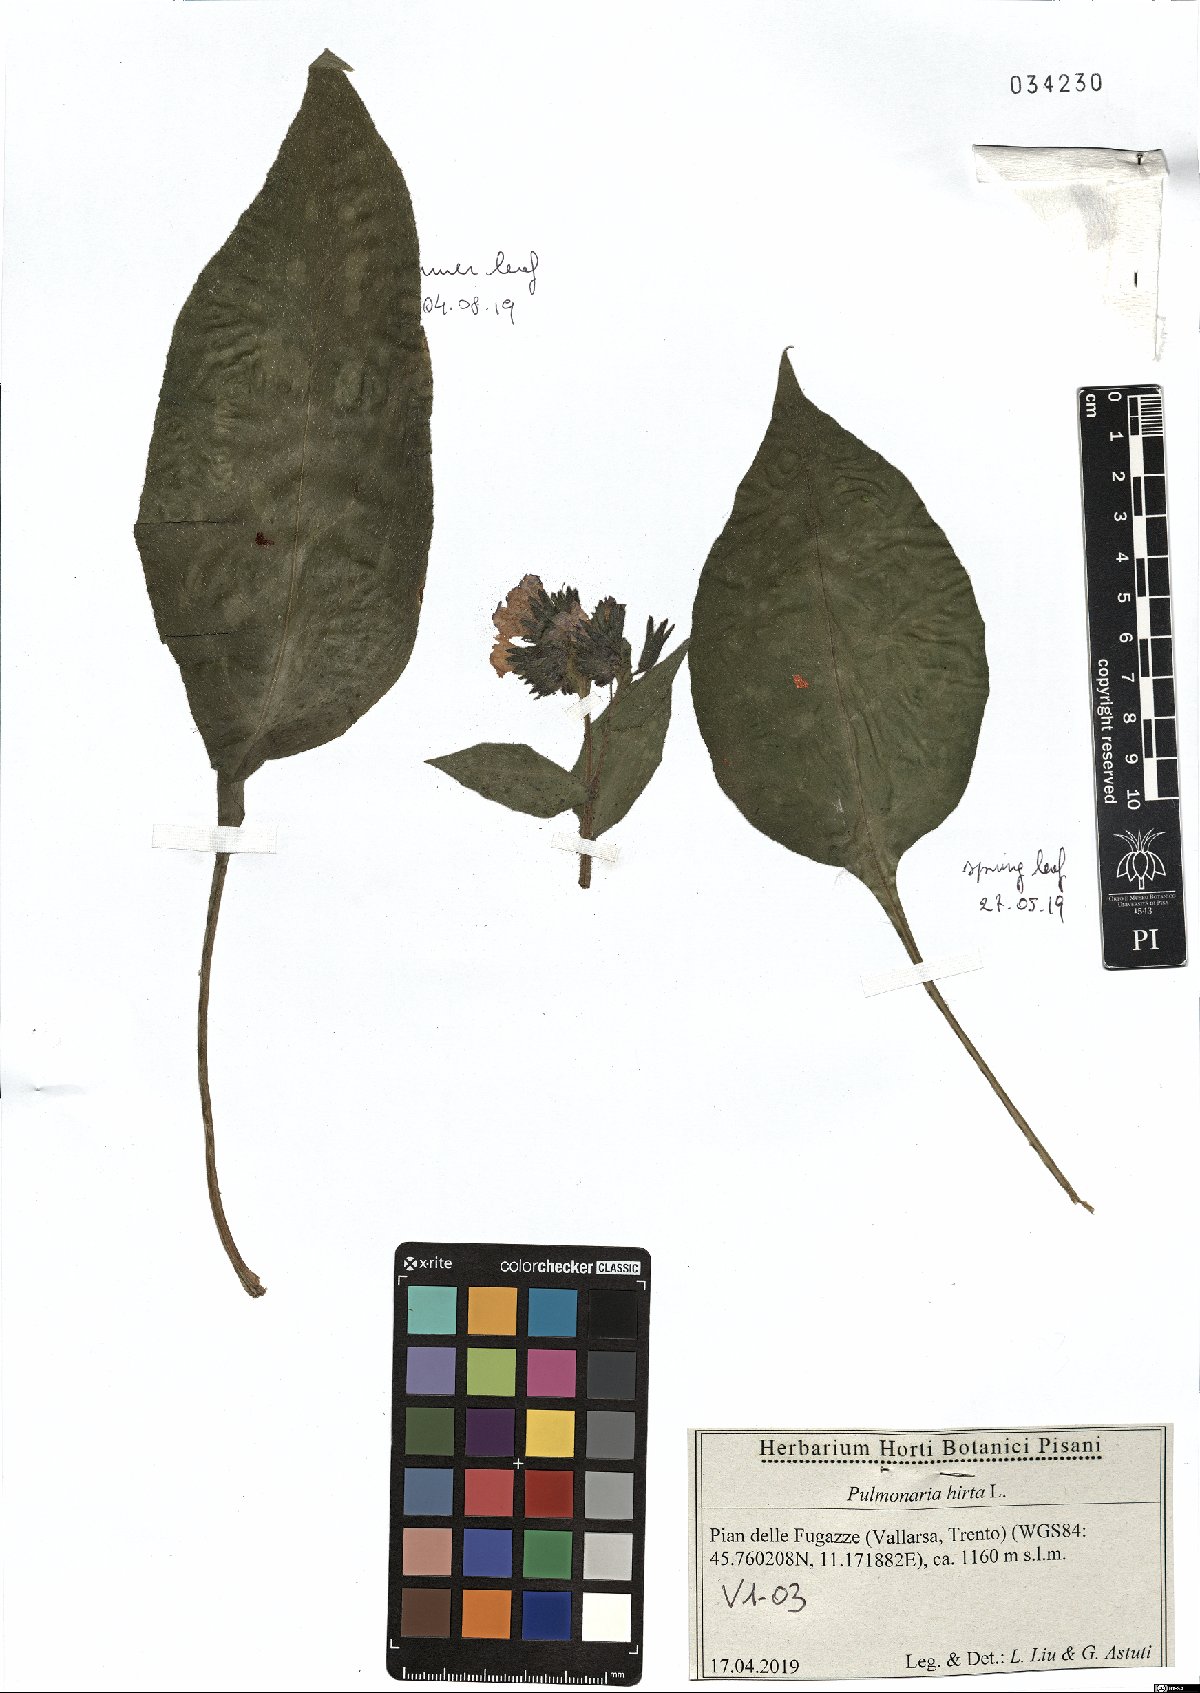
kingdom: Plantae
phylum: Tracheophyta
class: Magnoliopsida
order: Boraginales
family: Boraginaceae
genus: Pulmonaria
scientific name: Pulmonaria hirta
